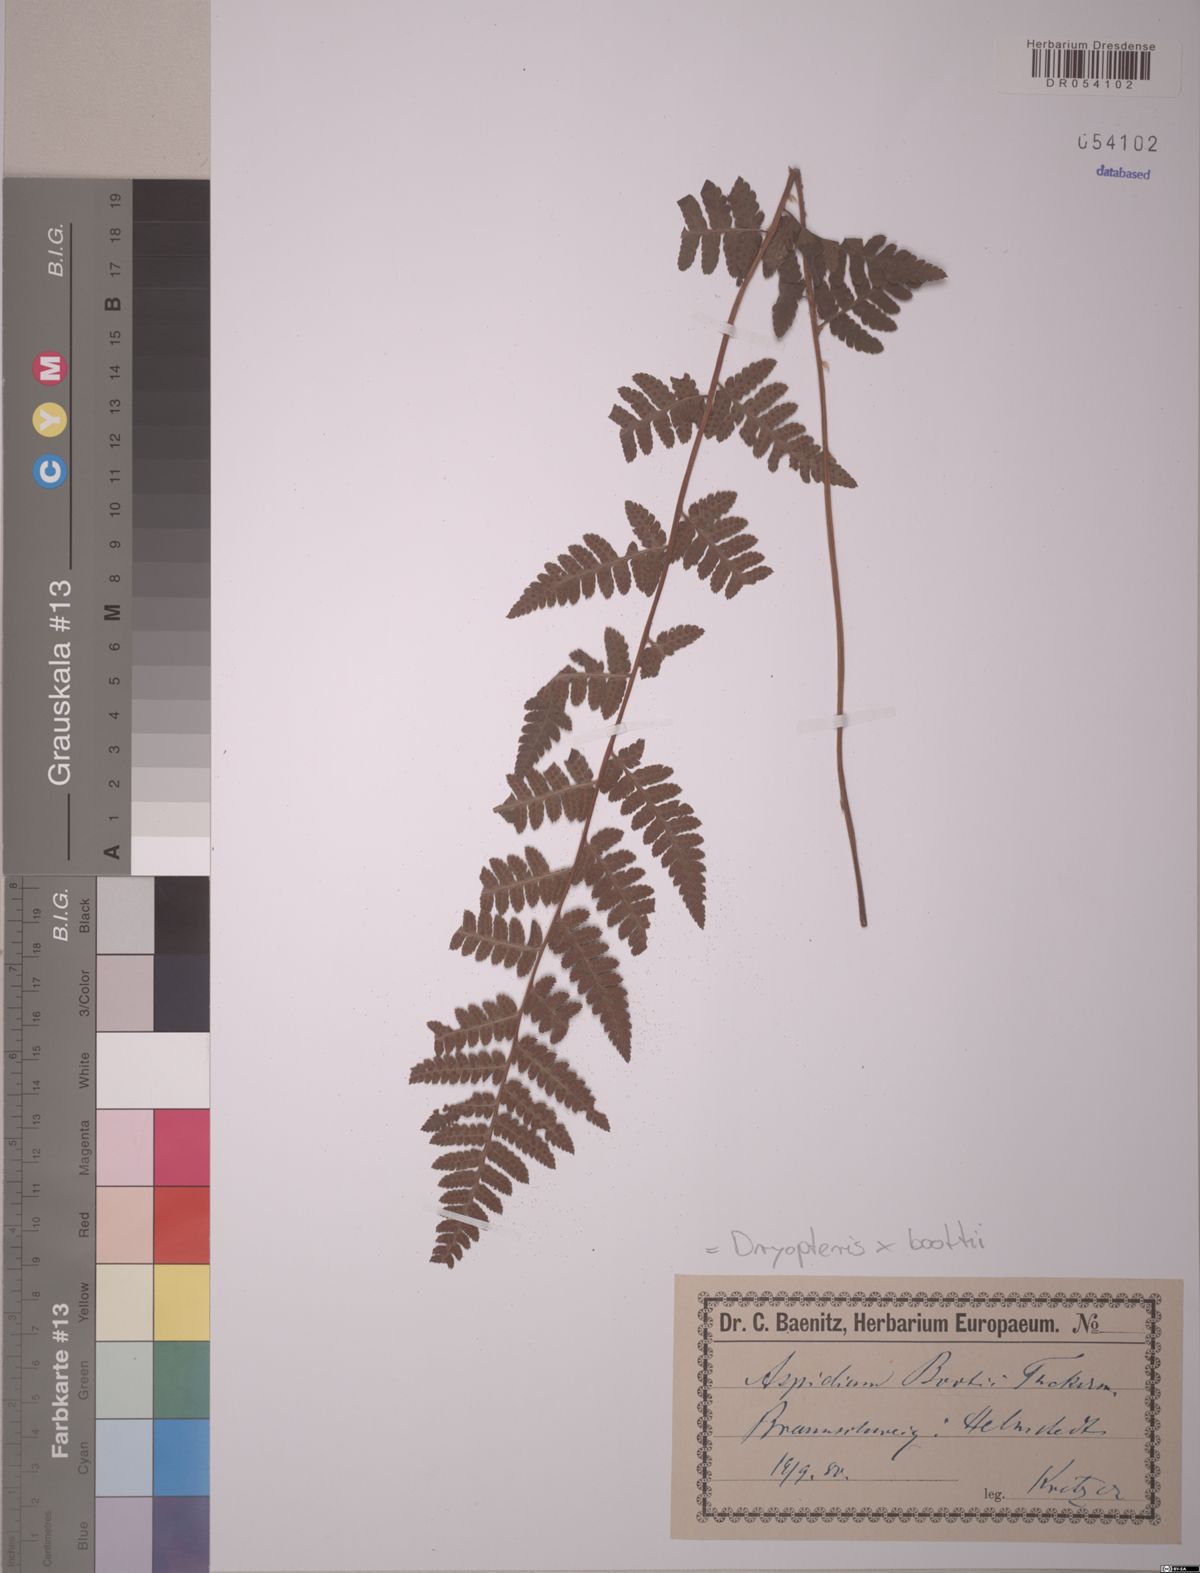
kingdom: Plantae
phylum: Tracheophyta
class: Polypodiopsida
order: Polypodiales
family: Dryopteridaceae
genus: Dryopteris
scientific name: Dryopteris boottii
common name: Boott's fern
